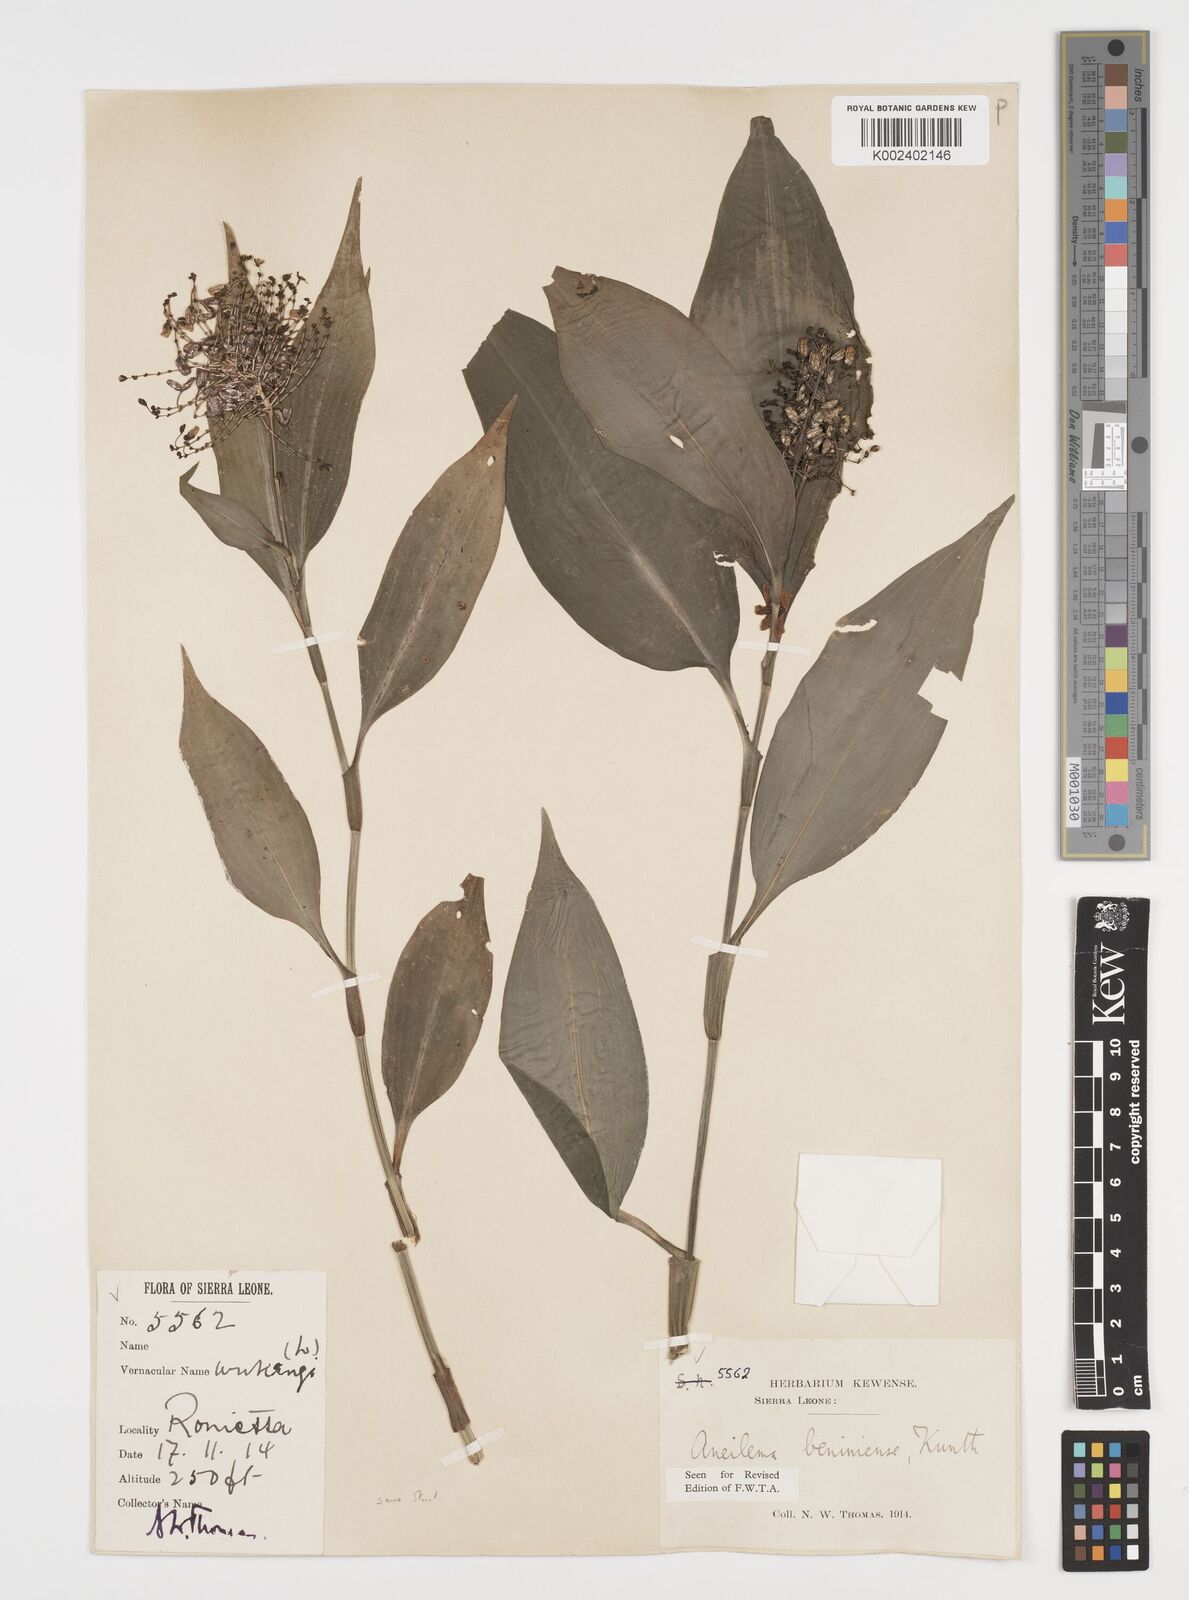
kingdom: Plantae
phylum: Tracheophyta
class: Liliopsida
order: Commelinales
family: Commelinaceae
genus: Aneilema
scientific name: Aneilema beniniense
